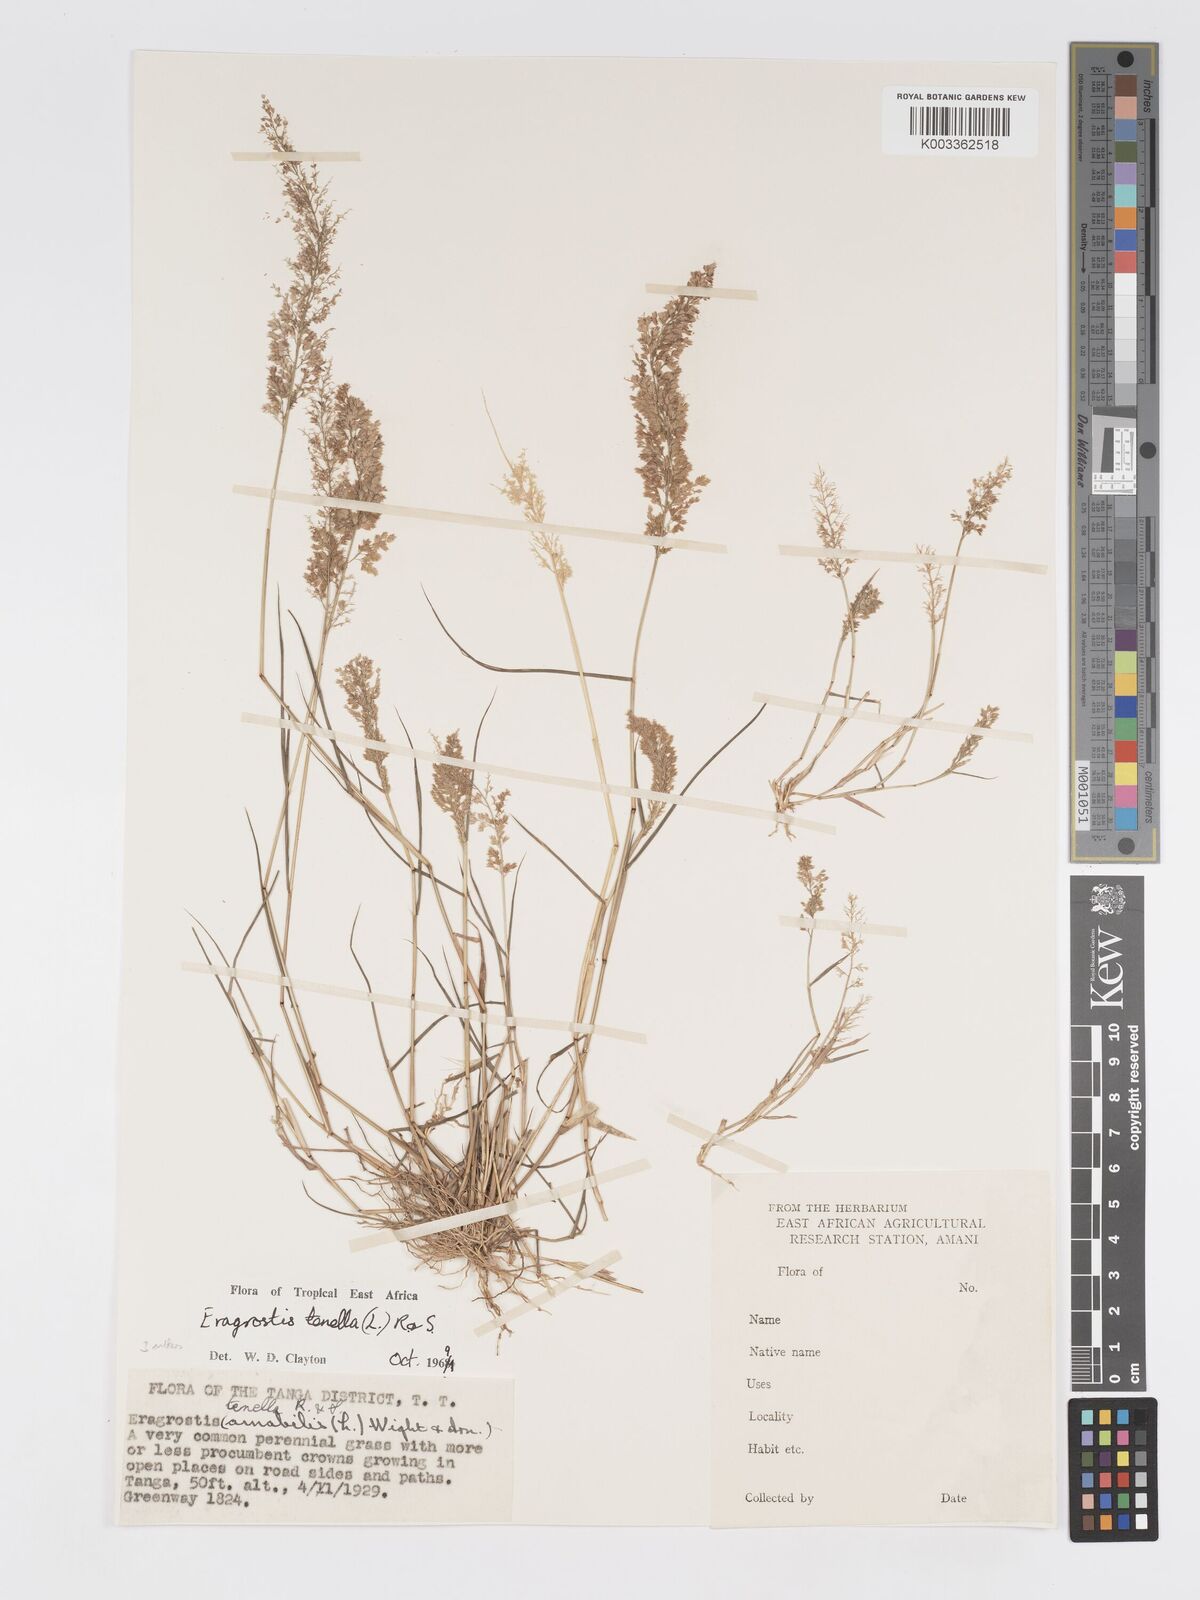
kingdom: Plantae
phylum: Tracheophyta
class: Liliopsida
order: Poales
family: Poaceae
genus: Eragrostis
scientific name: Eragrostis tenella
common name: Japanese lovegrass
